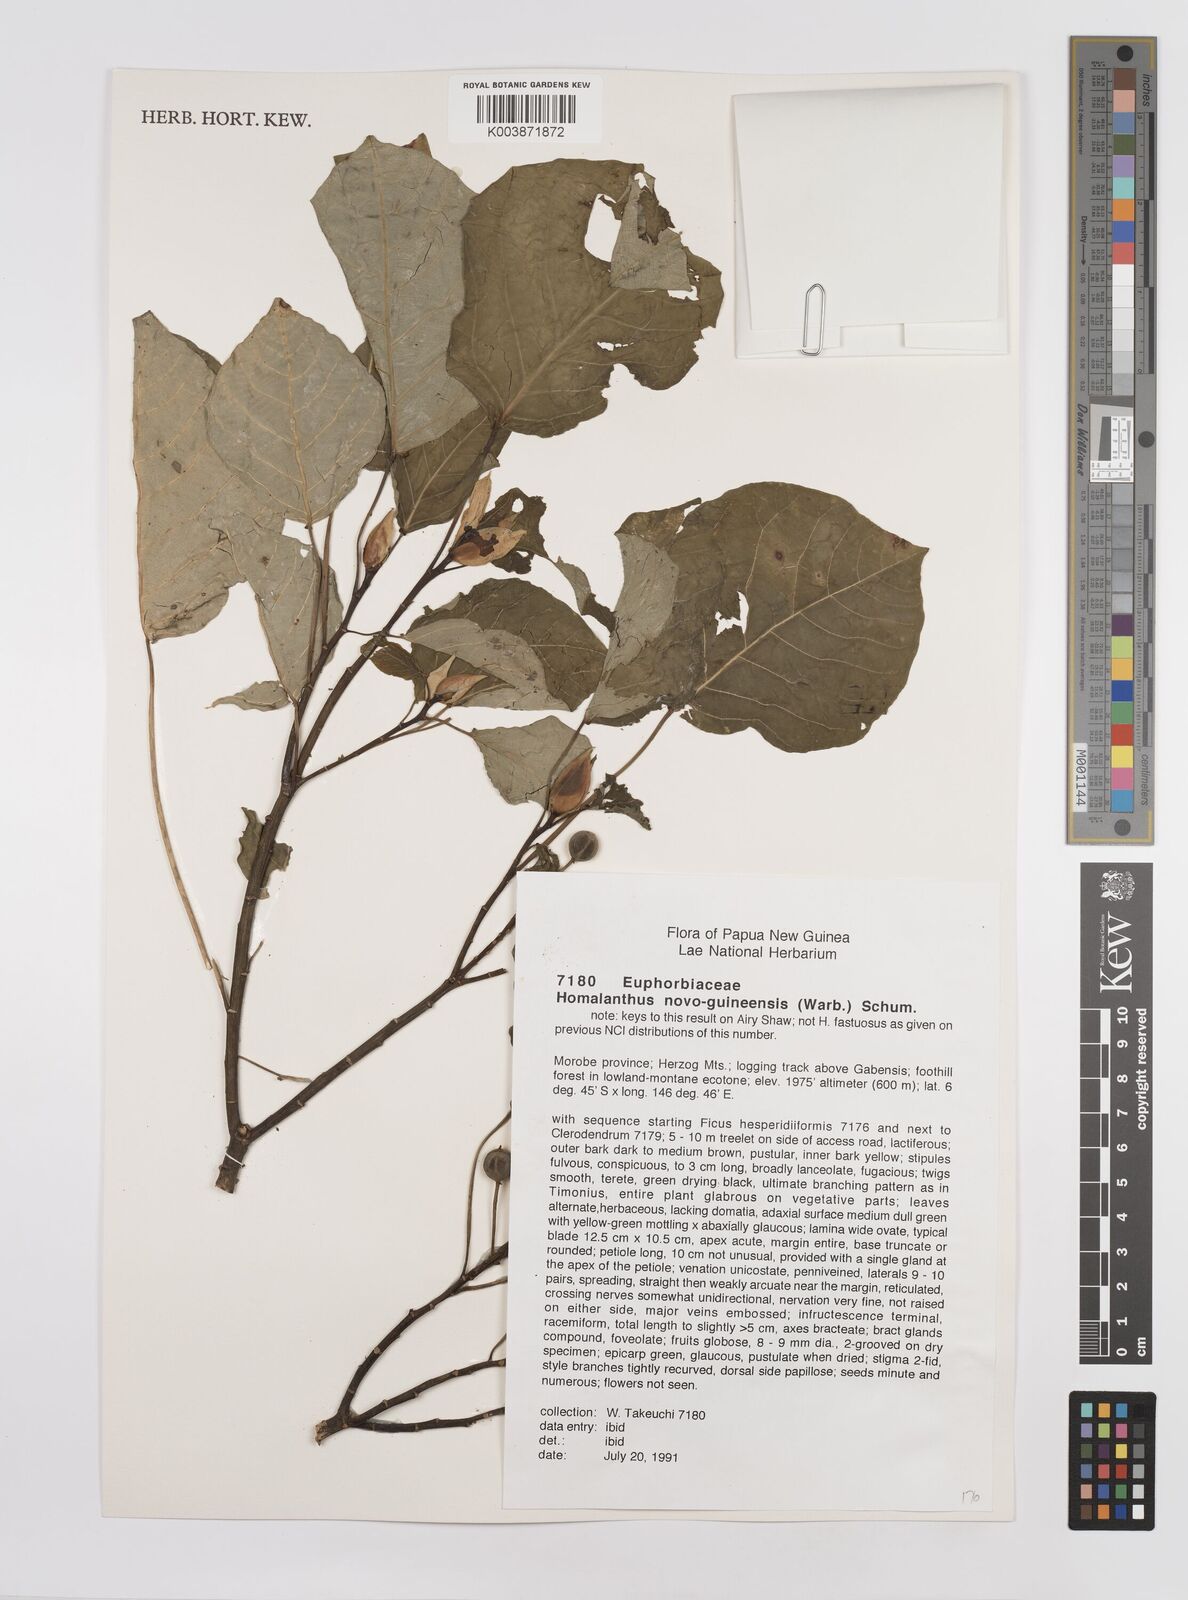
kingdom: Plantae
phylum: Tracheophyta
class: Magnoliopsida
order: Malpighiales
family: Euphorbiaceae
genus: Homalanthus
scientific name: Homalanthus novoguineensis
